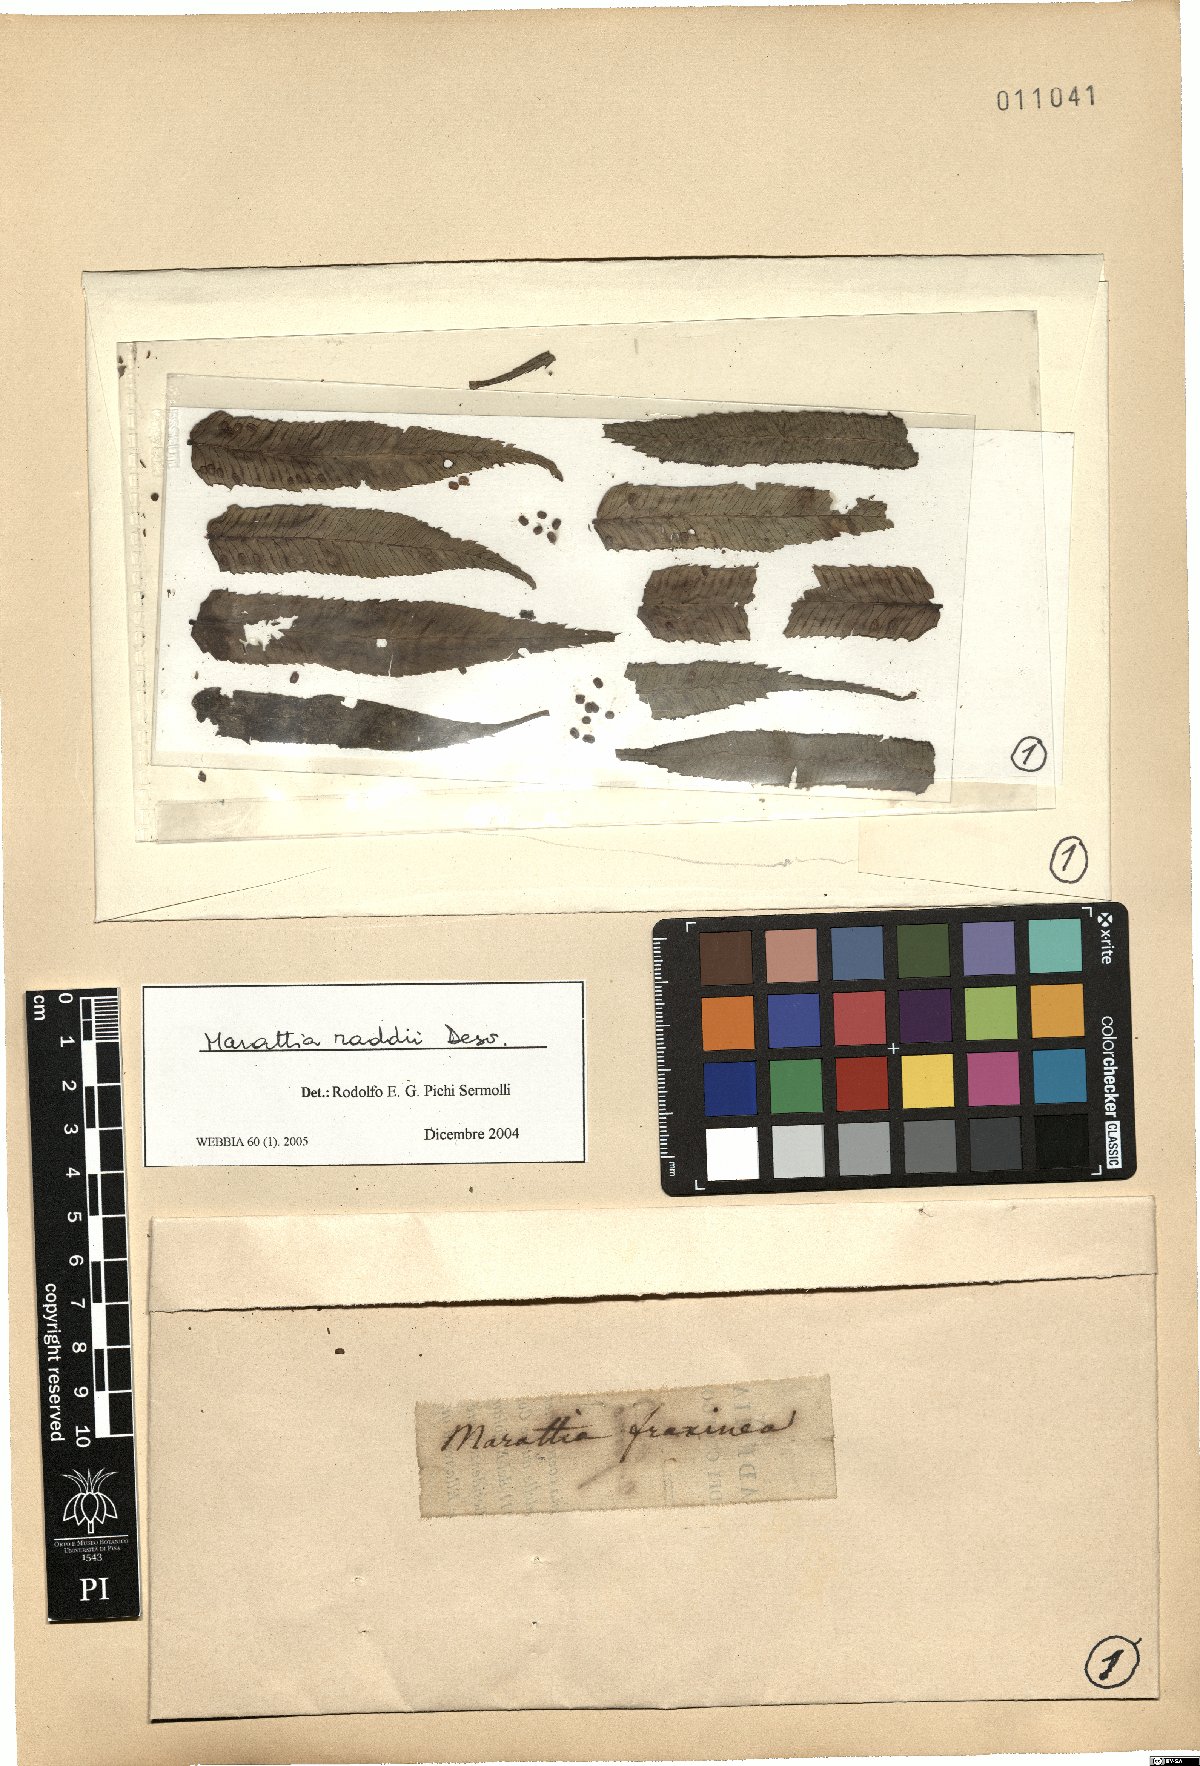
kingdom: Plantae
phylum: Tracheophyta
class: Polypodiopsida
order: Marattiales
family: Marattiaceae
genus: Eupodium
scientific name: Eupodium cicutifolium
